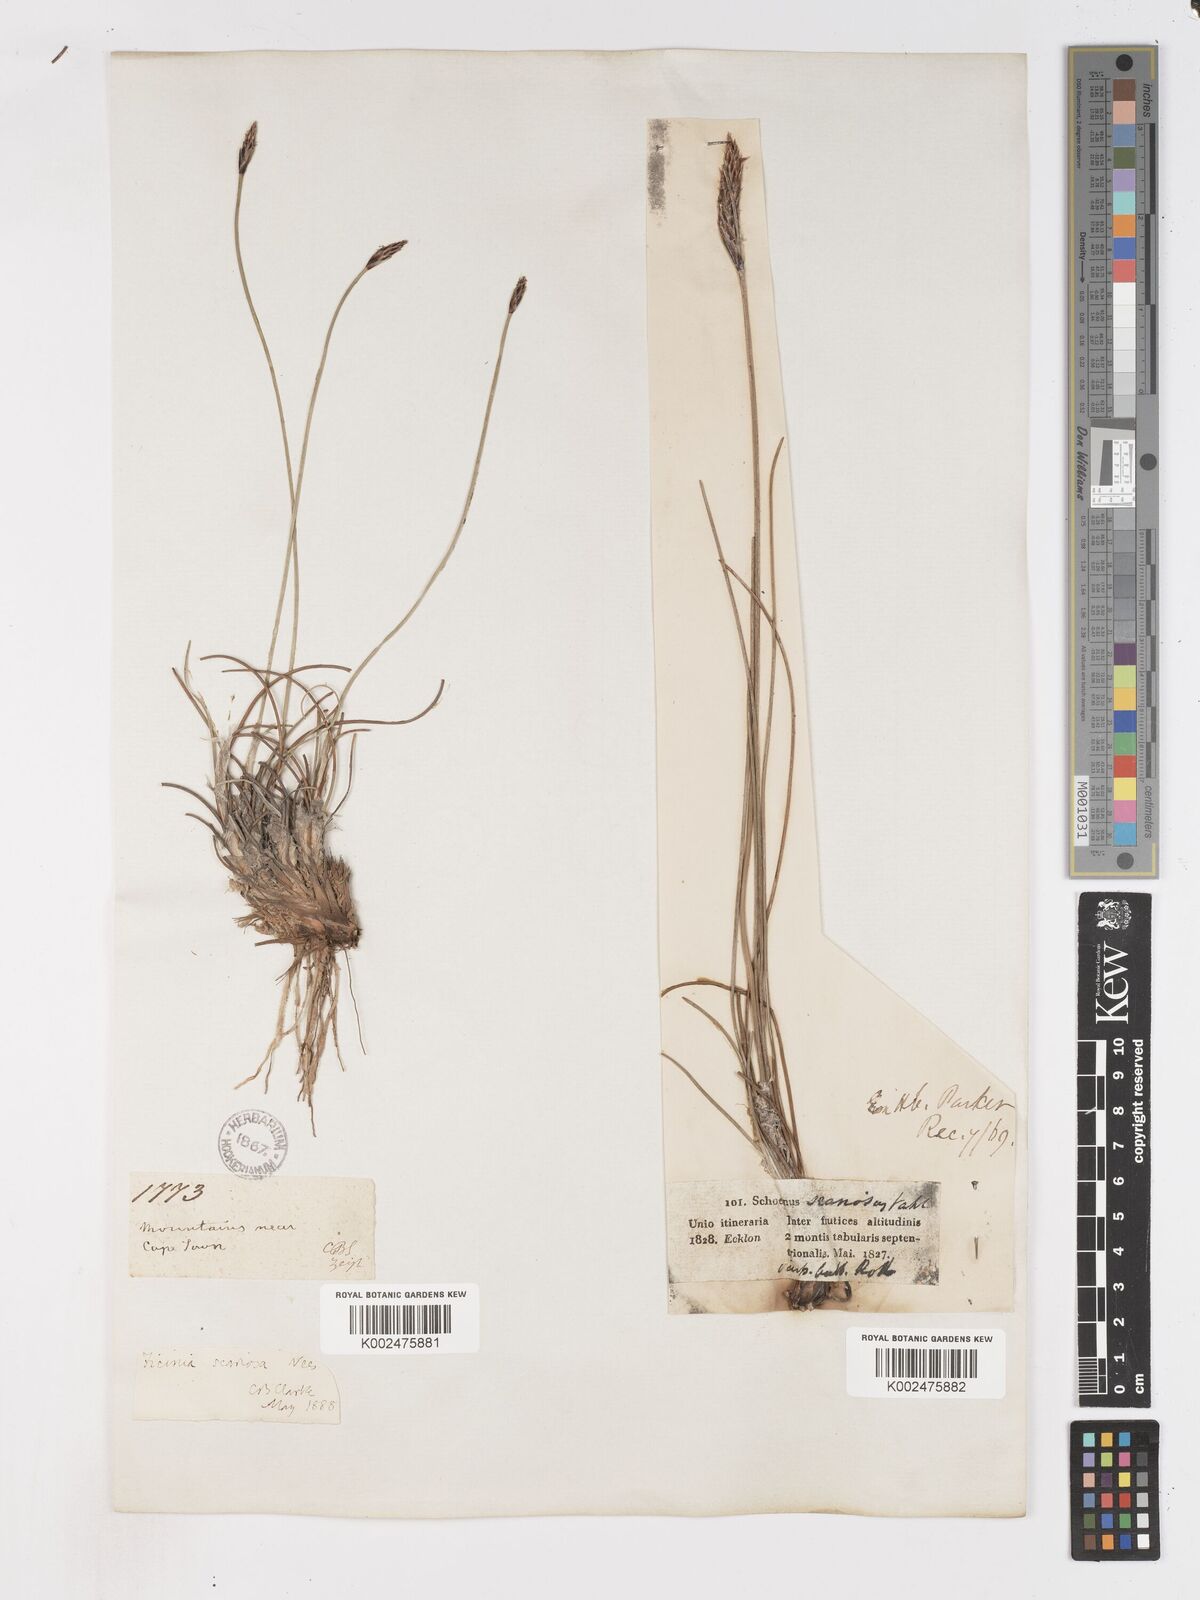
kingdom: Plantae
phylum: Tracheophyta
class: Liliopsida
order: Poales
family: Cyperaceae
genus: Ficinia
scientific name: Ficinia deusta
